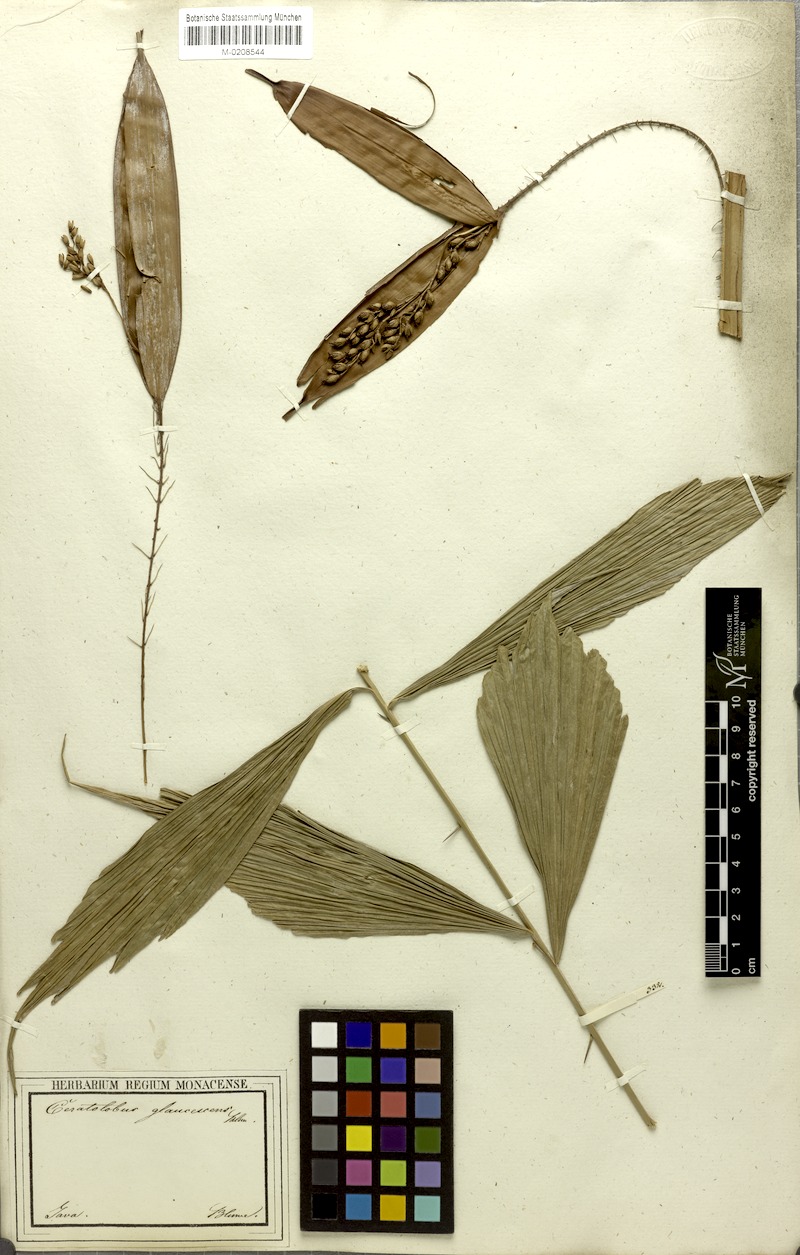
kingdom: Plantae
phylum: Tracheophyta
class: Liliopsida
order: Arecales
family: Arecaceae
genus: Calamus
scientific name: Calamus glaucescens
